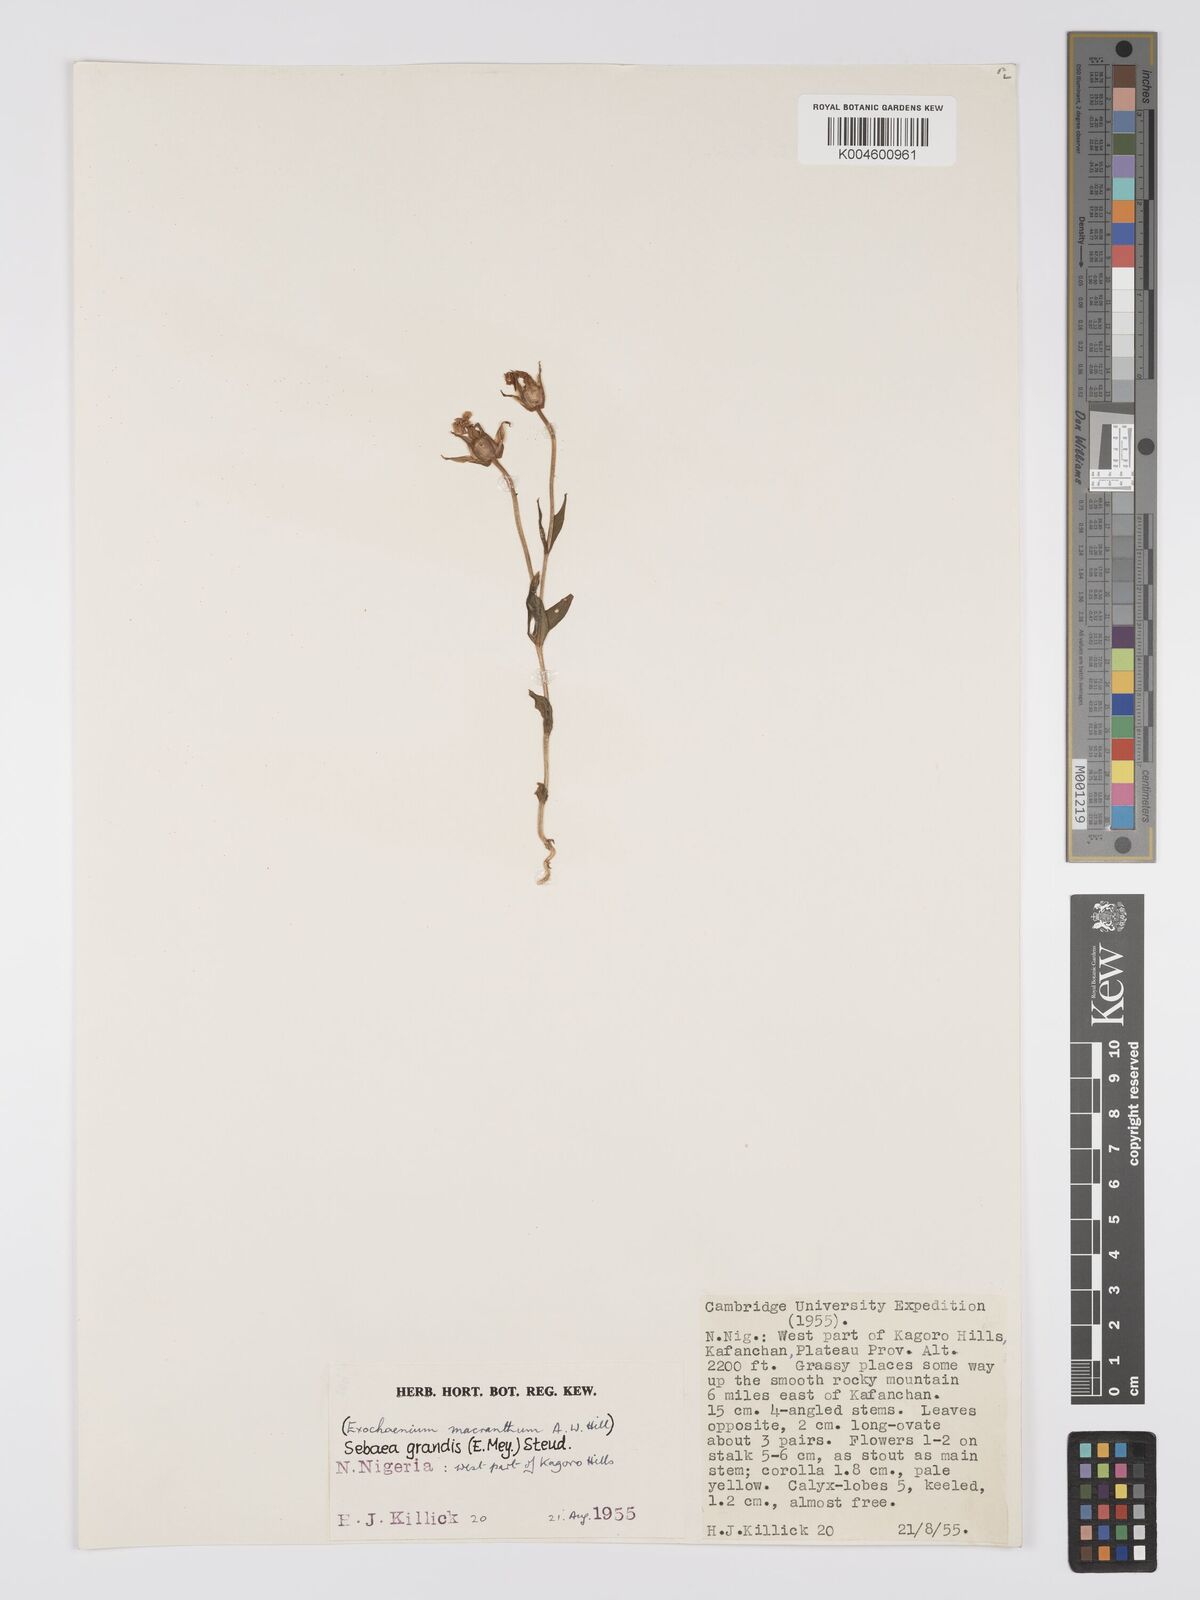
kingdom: Plantae
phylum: Tracheophyta
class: Magnoliopsida
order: Gentianales
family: Gentianaceae
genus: Exochaenium
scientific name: Exochaenium grande
